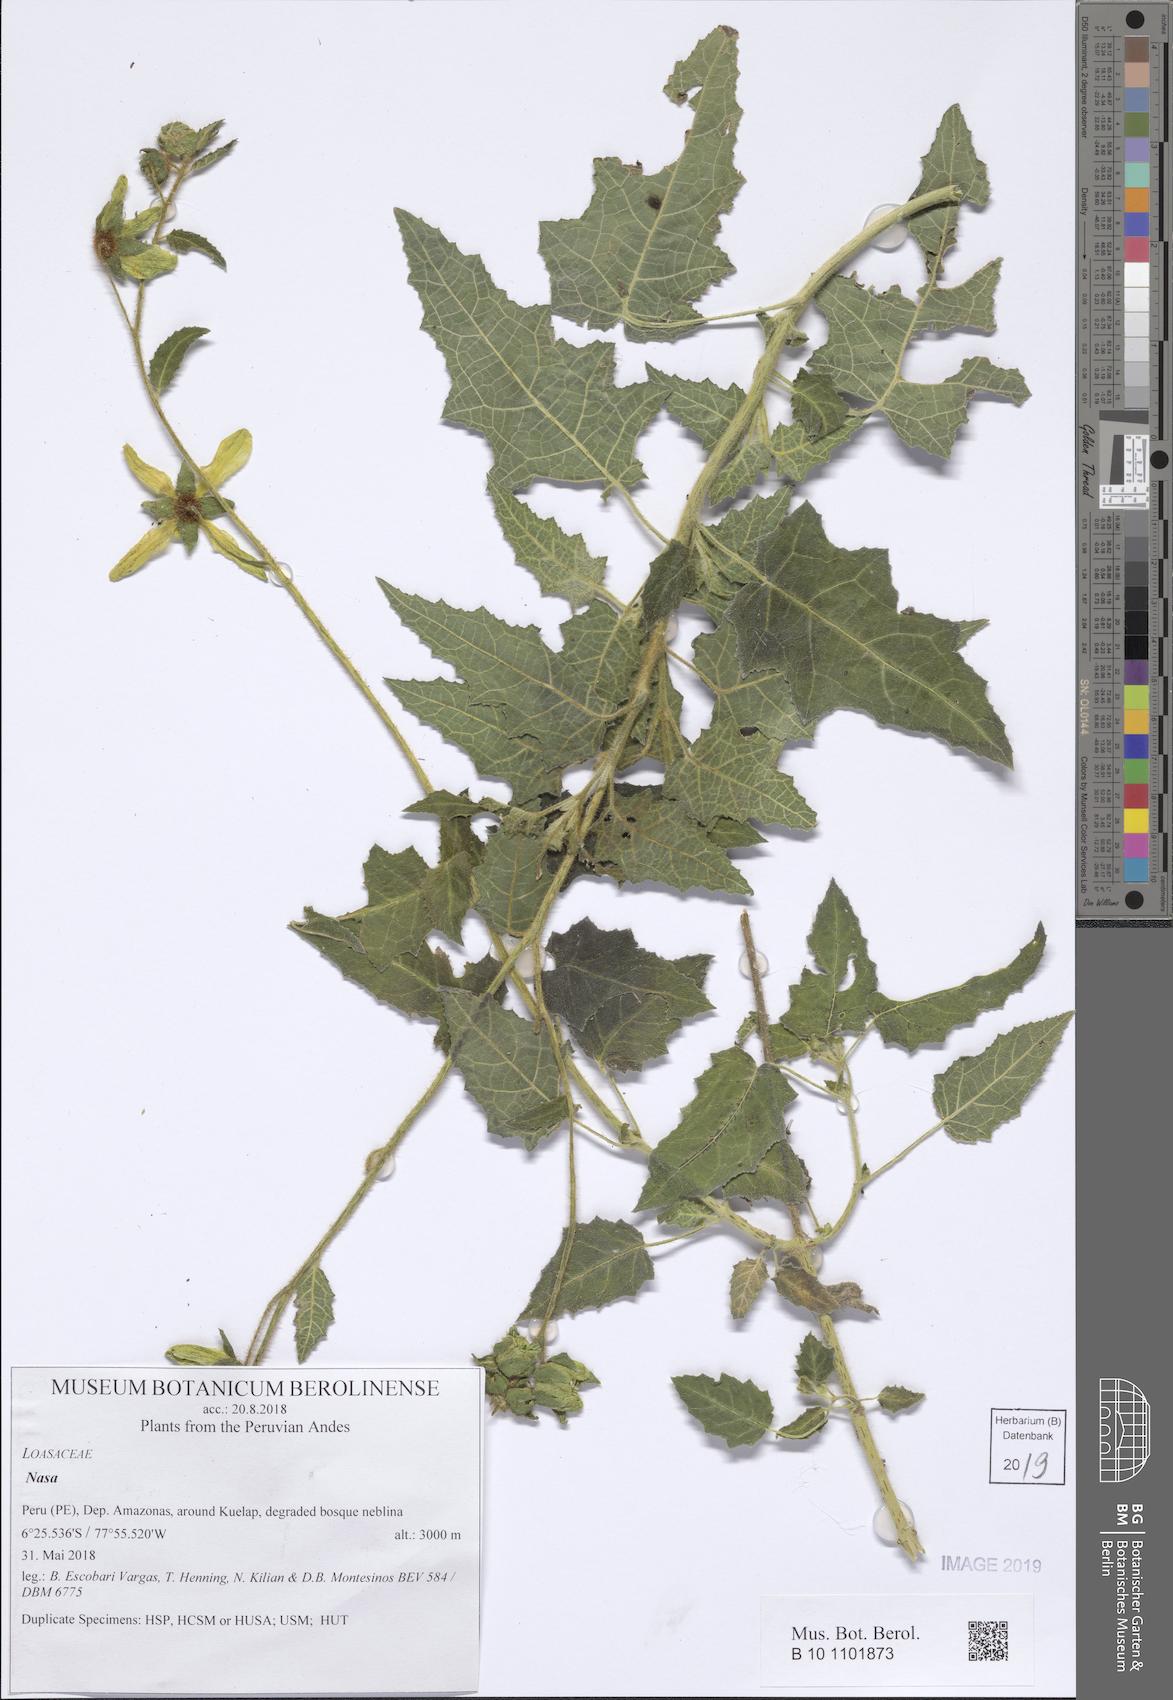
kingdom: Plantae
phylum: Tracheophyta
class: Magnoliopsida
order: Cornales
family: Loasaceae
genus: Nasa
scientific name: Nasa driessleae
